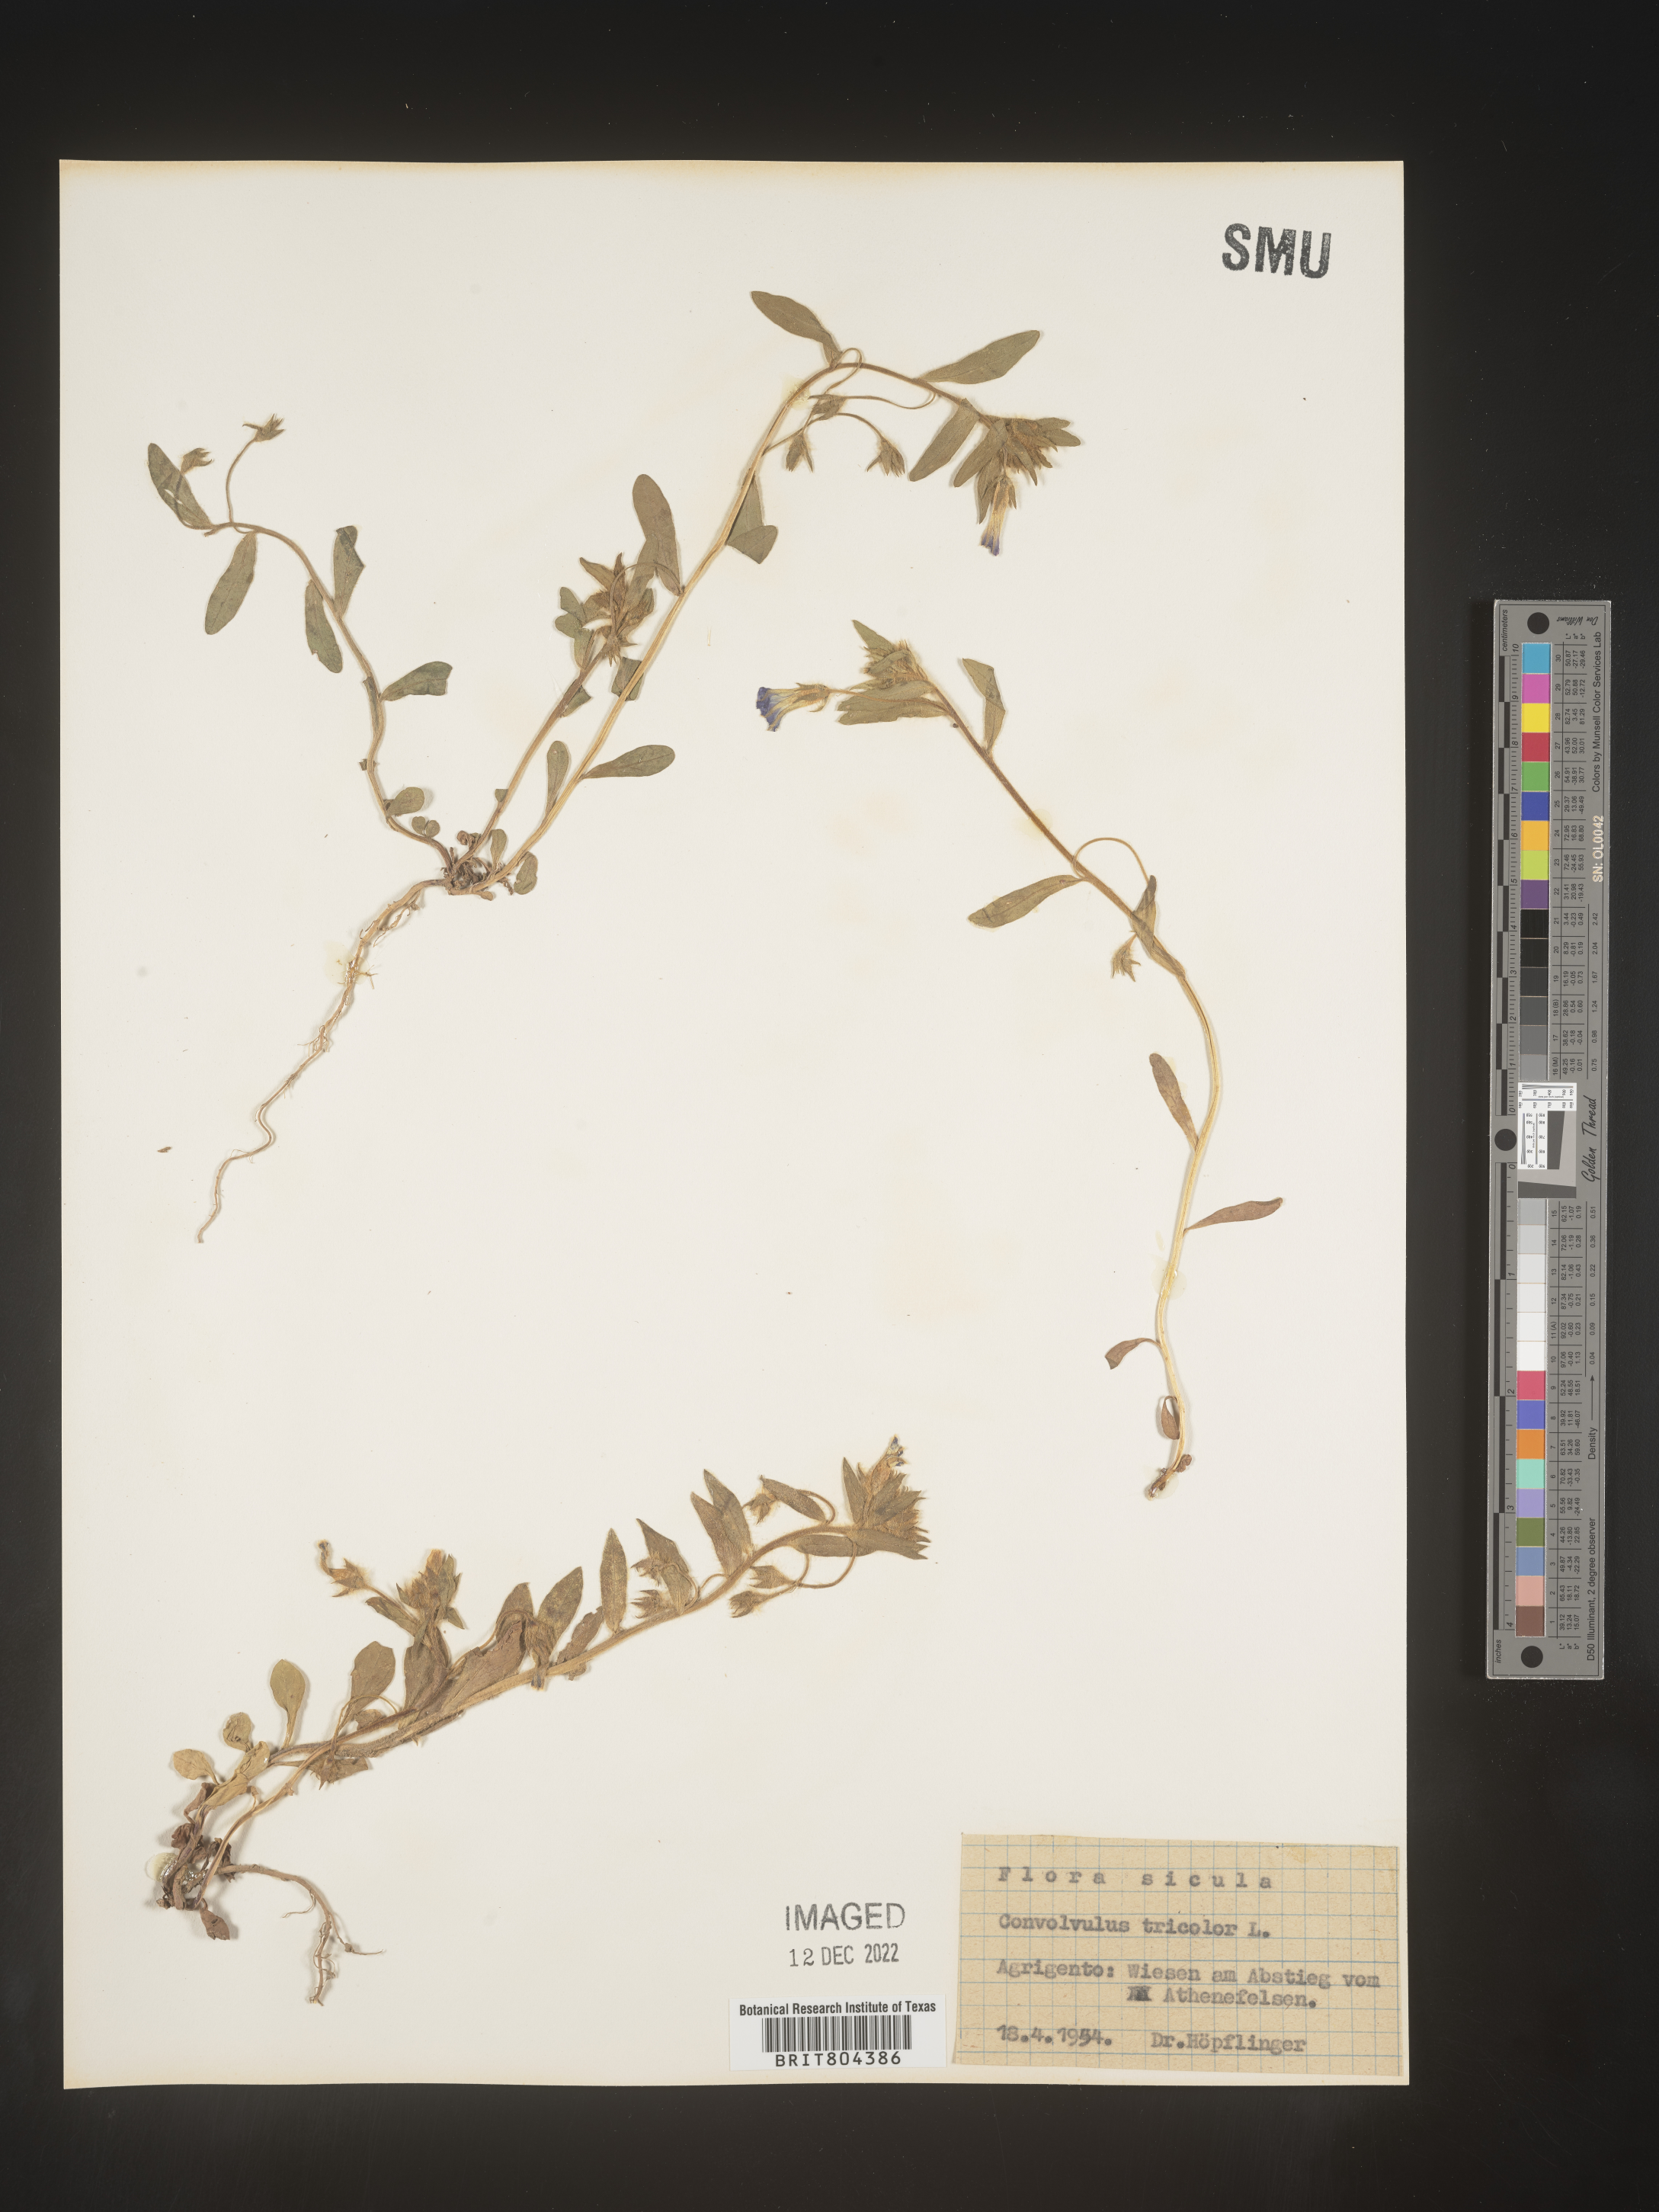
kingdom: Plantae
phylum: Tracheophyta
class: Magnoliopsida
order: Solanales
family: Convolvulaceae
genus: Convolvulus
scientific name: Convolvulus
